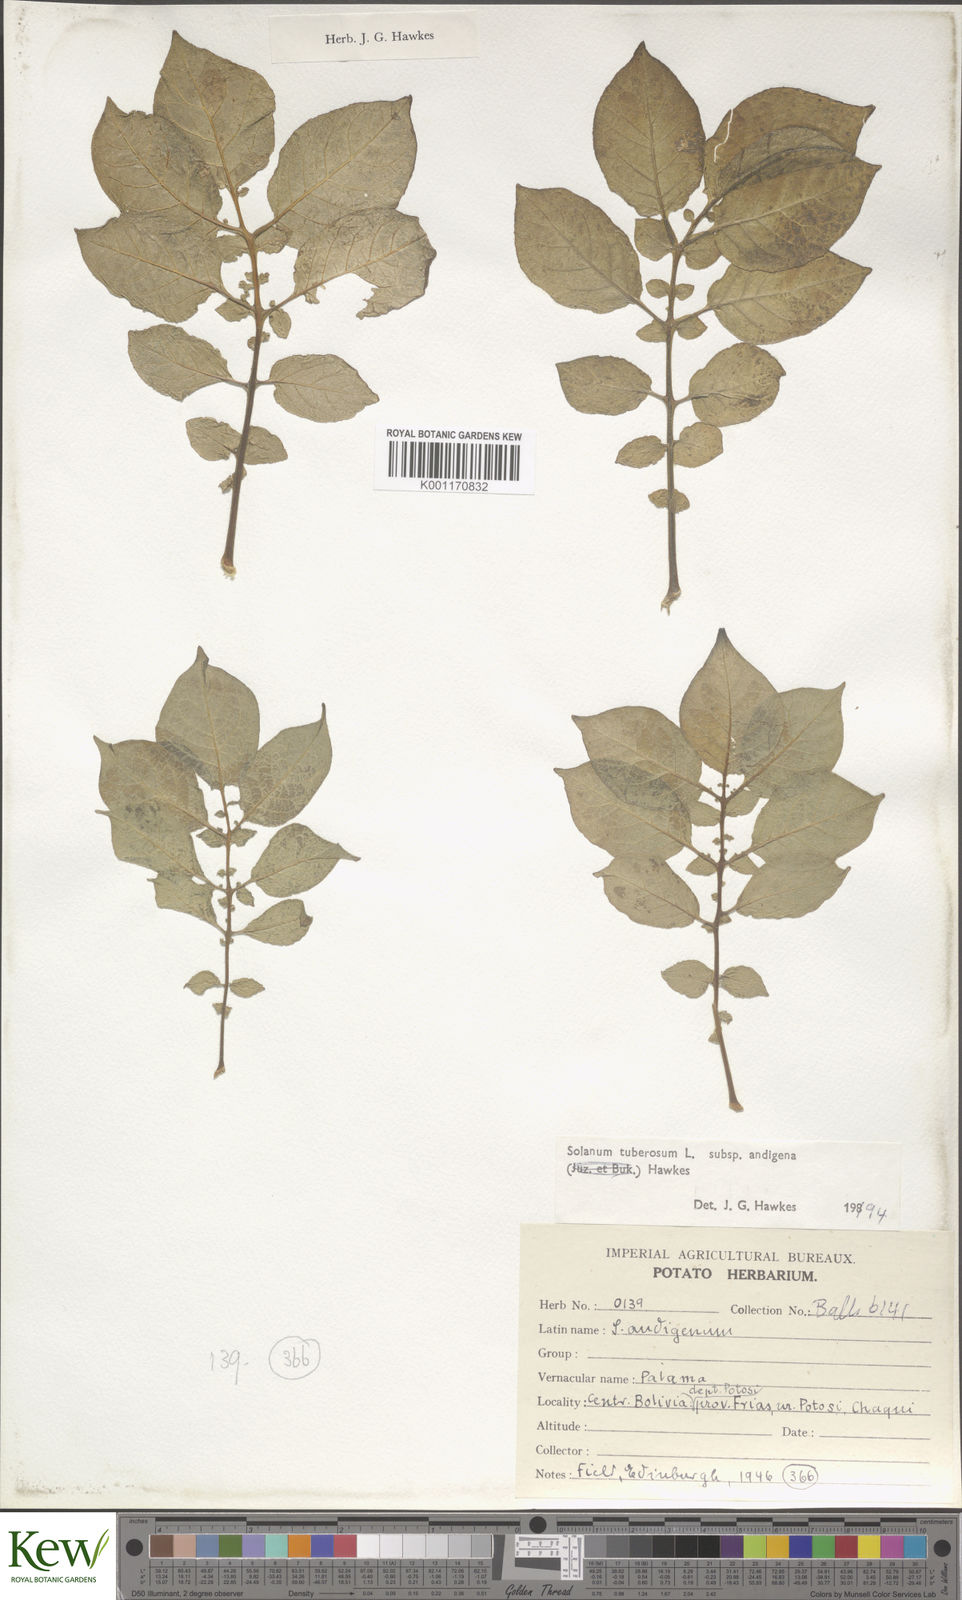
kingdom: Plantae
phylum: Tracheophyta
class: Magnoliopsida
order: Solanales
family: Solanaceae
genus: Solanum
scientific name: Solanum tuberosum
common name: Potato
